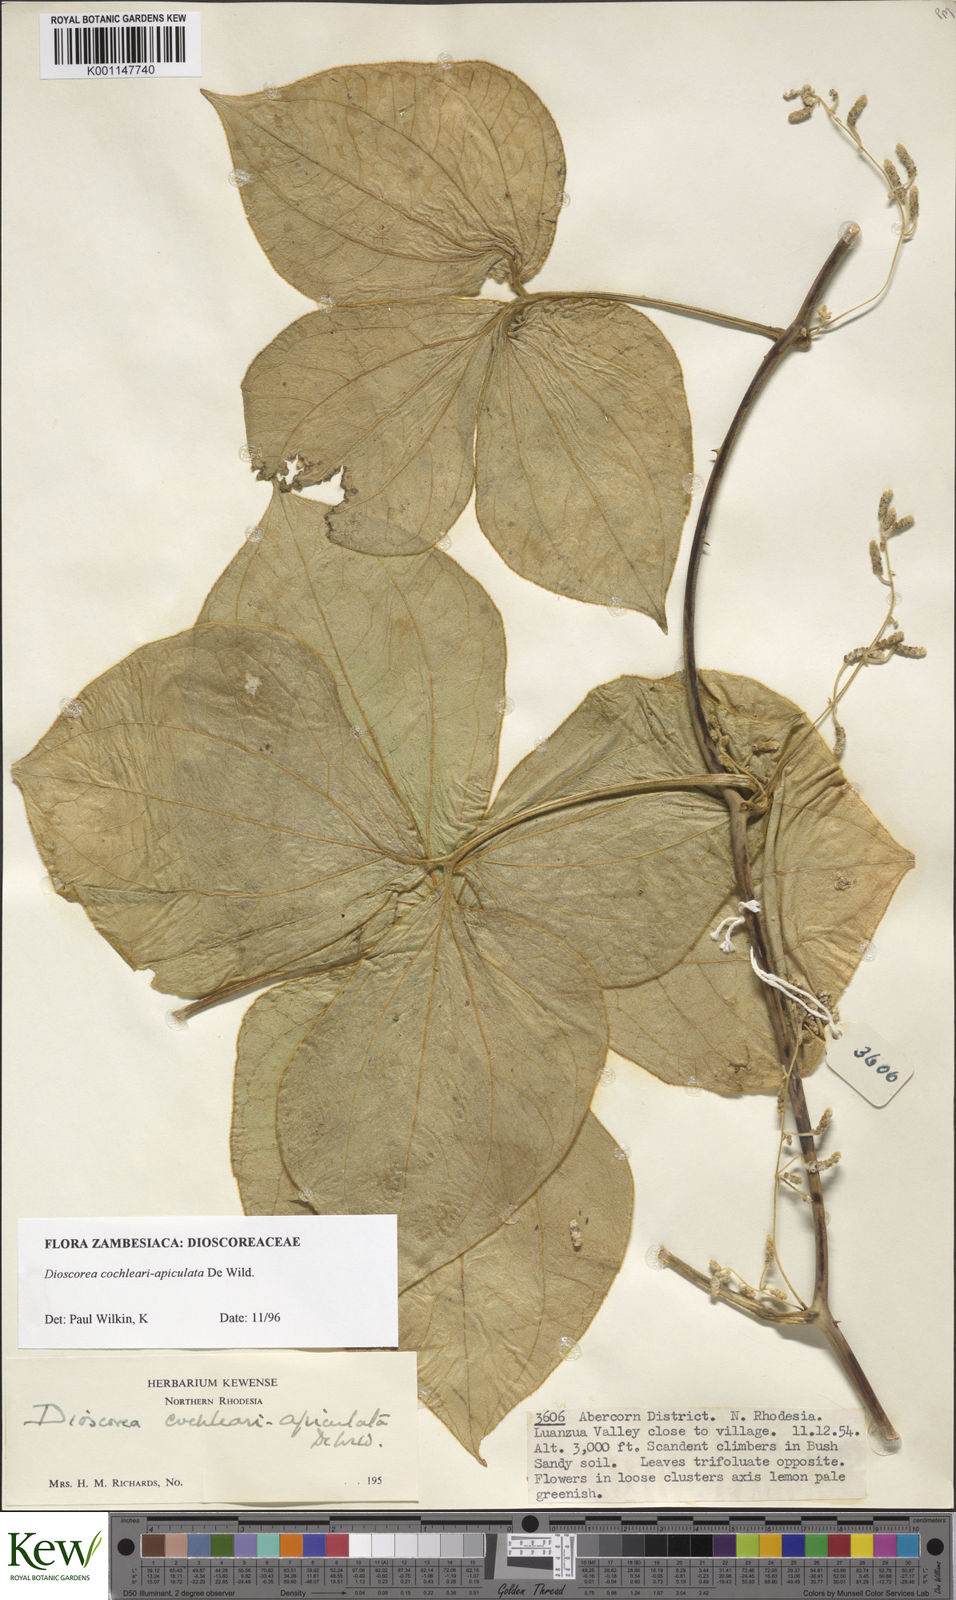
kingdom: Plantae
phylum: Tracheophyta
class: Liliopsida
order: Dioscoreales
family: Dioscoreaceae
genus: Dioscorea
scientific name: Dioscorea cochleariapiculata
